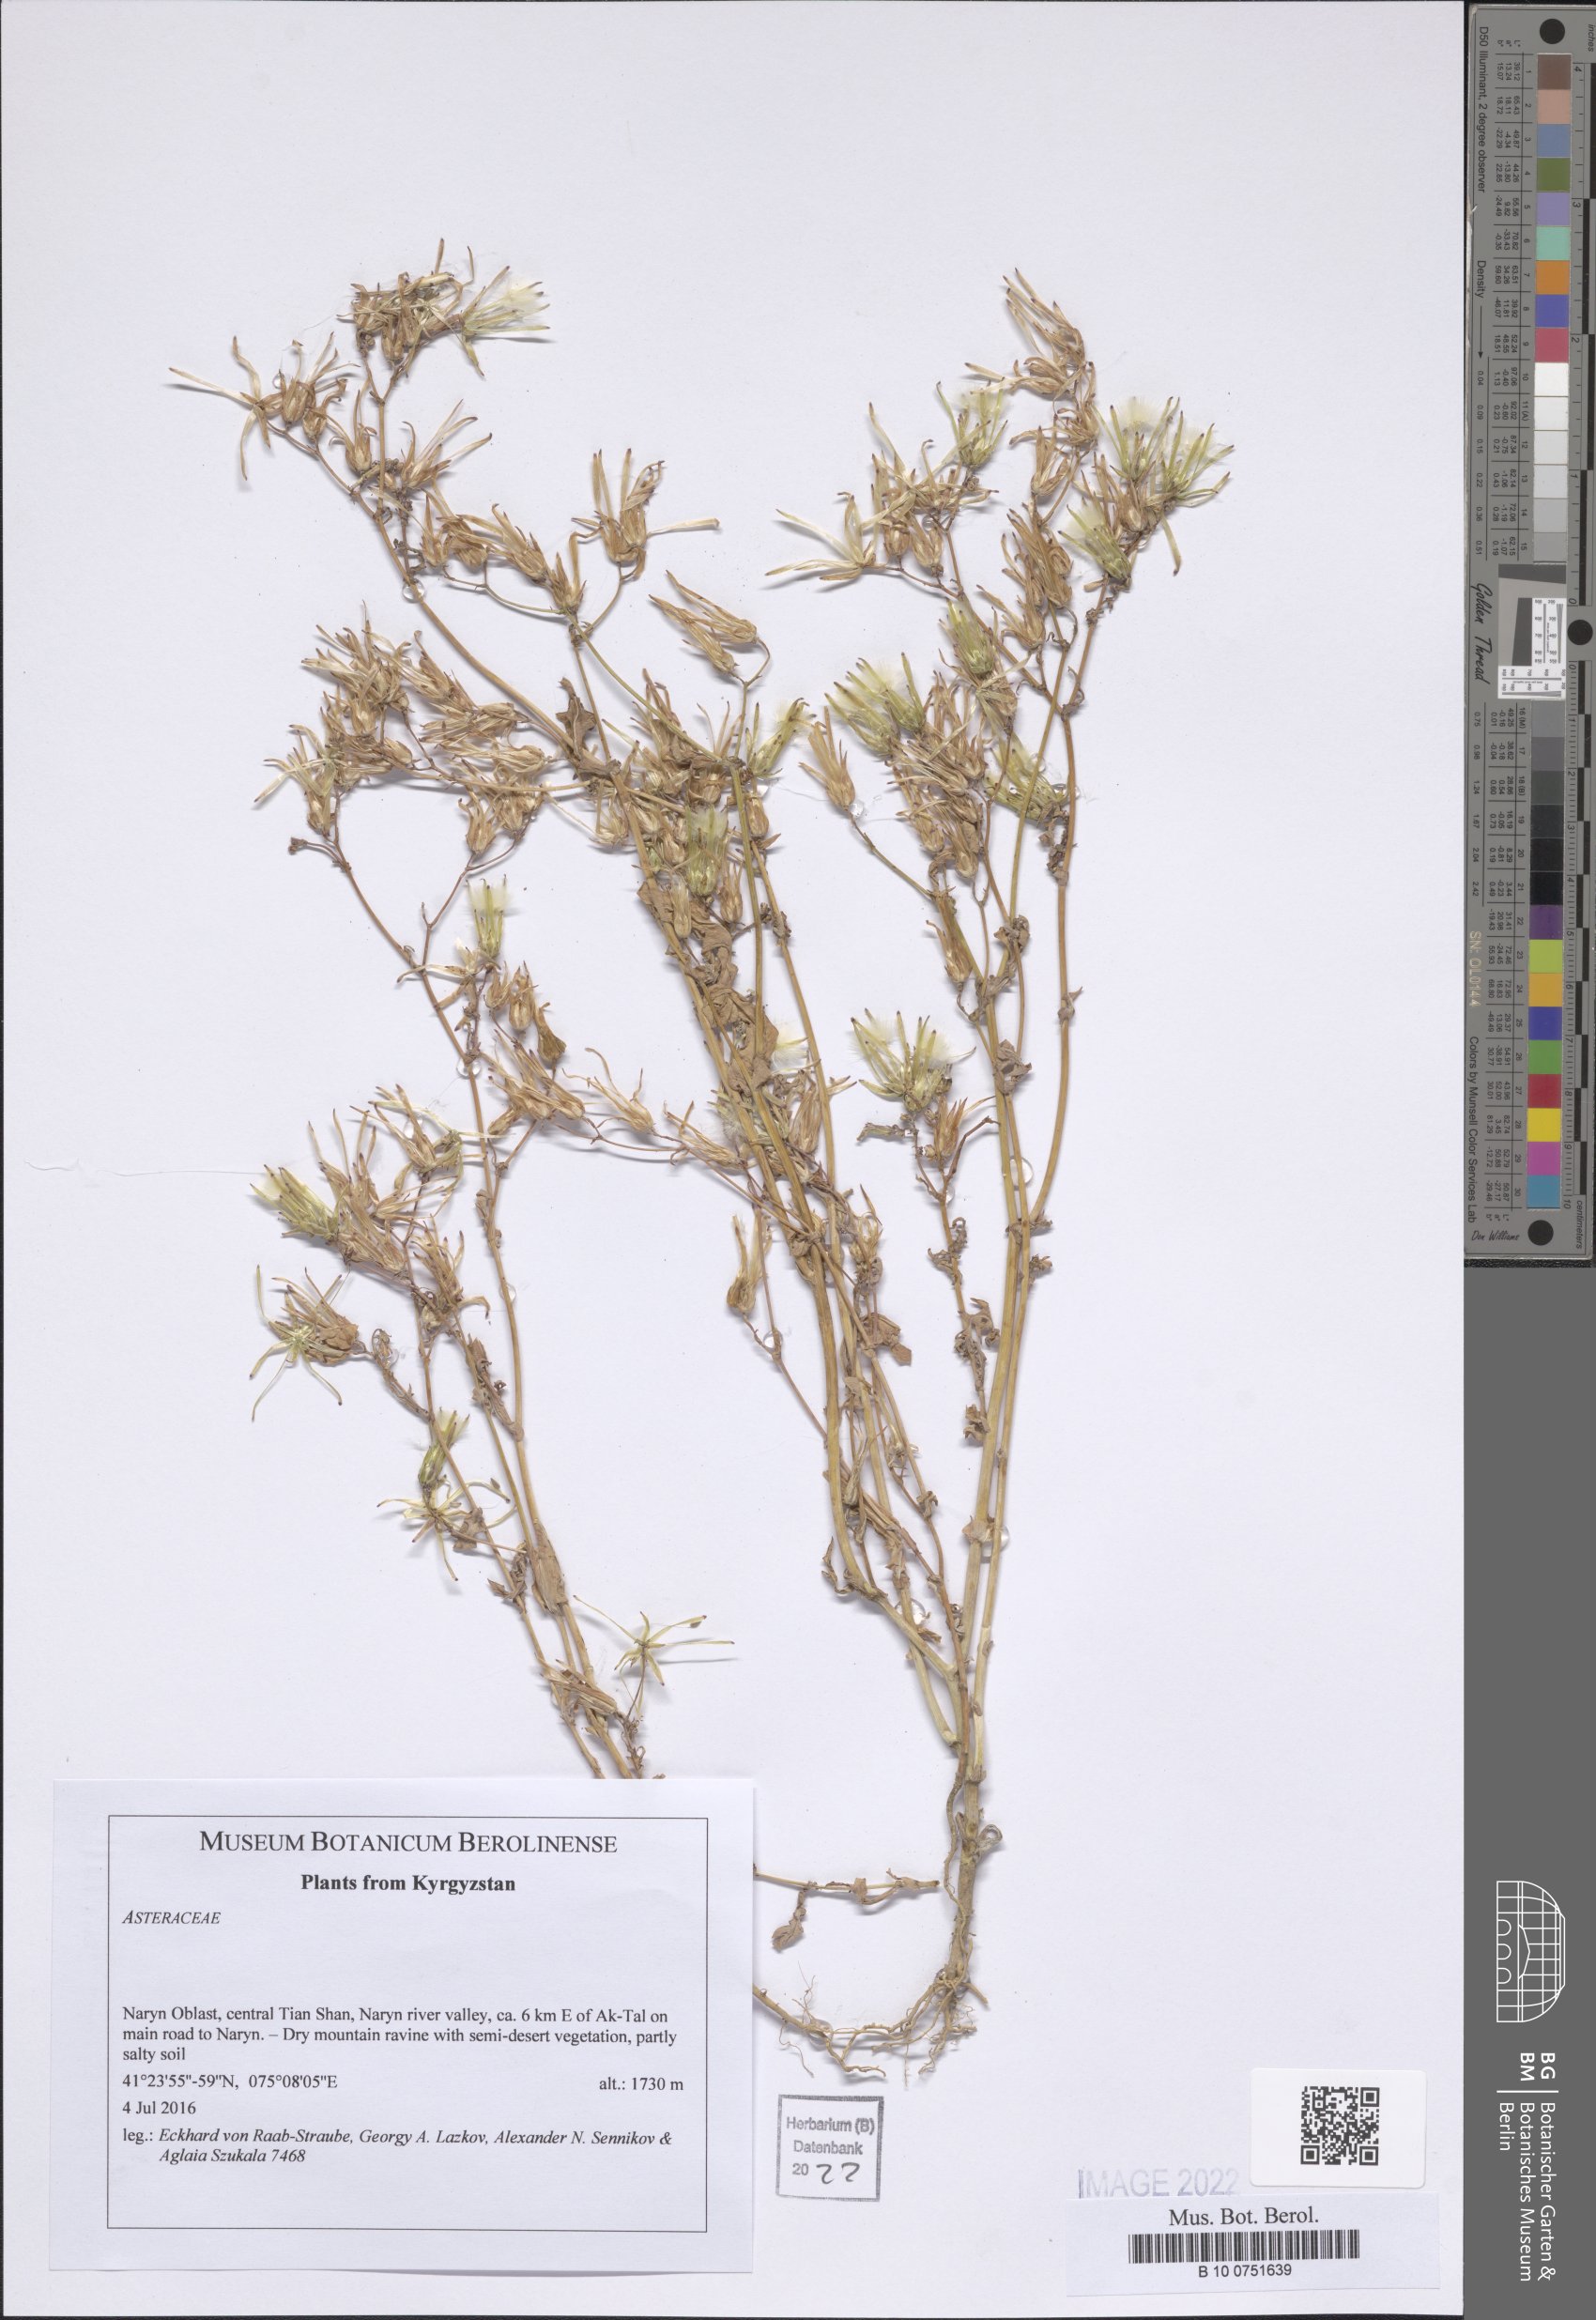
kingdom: Plantae
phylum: Tracheophyta
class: Magnoliopsida
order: Asterales
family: Asteraceae
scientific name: Asteraceae
